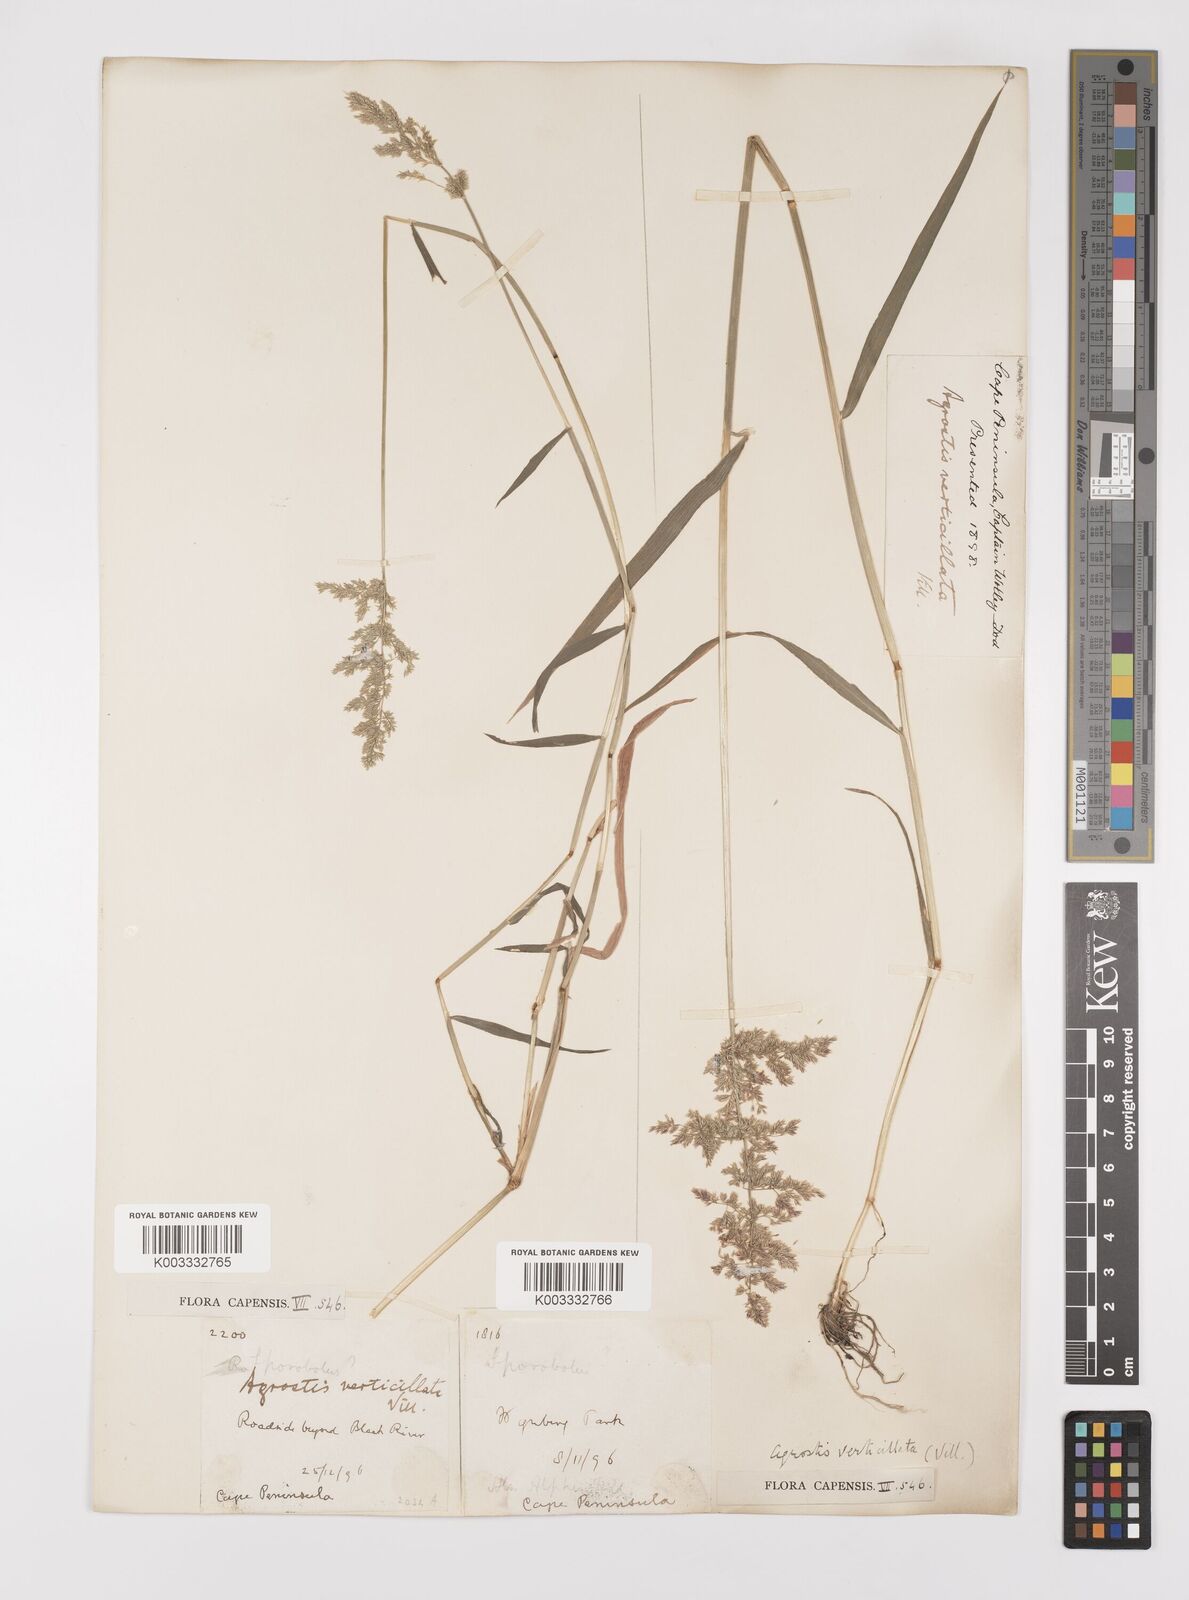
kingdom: Plantae
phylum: Tracheophyta
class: Liliopsida
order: Poales
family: Poaceae
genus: Polypogon
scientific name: Polypogon viridis
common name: Water bent
